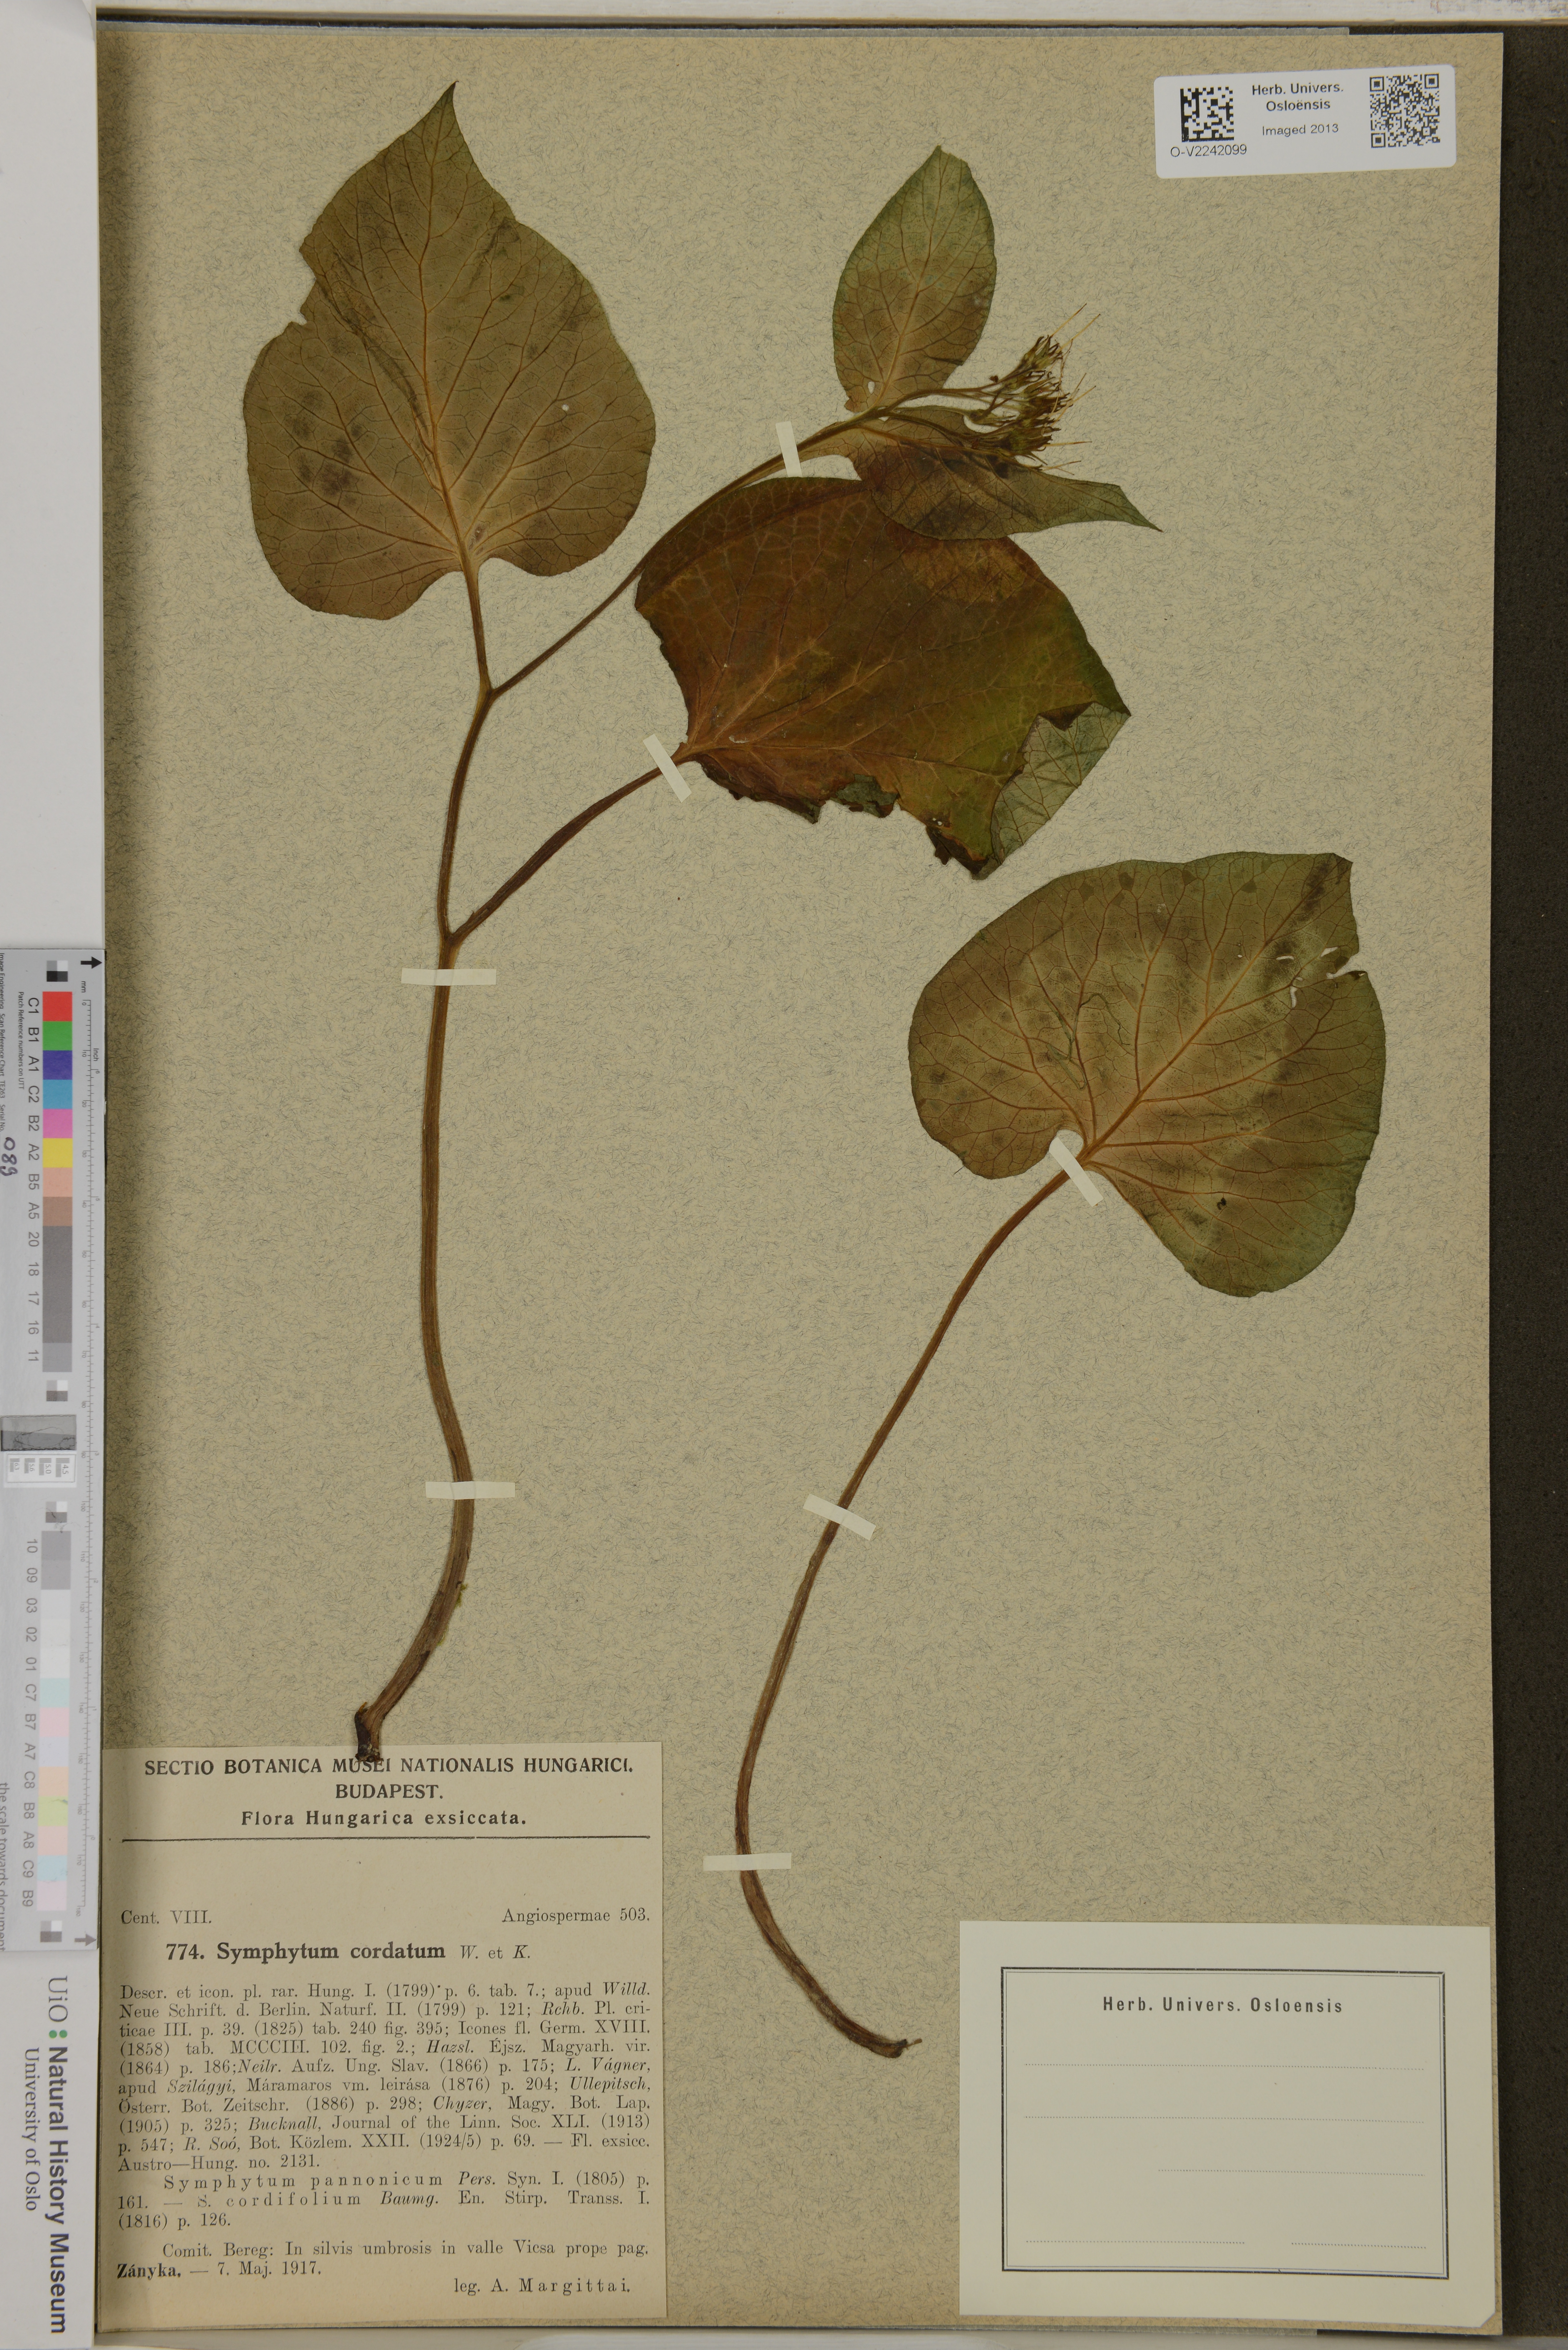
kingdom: Plantae
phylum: Tracheophyta
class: Magnoliopsida
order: Boraginales
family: Boraginaceae
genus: Symphytum
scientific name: Symphytum cordatum
